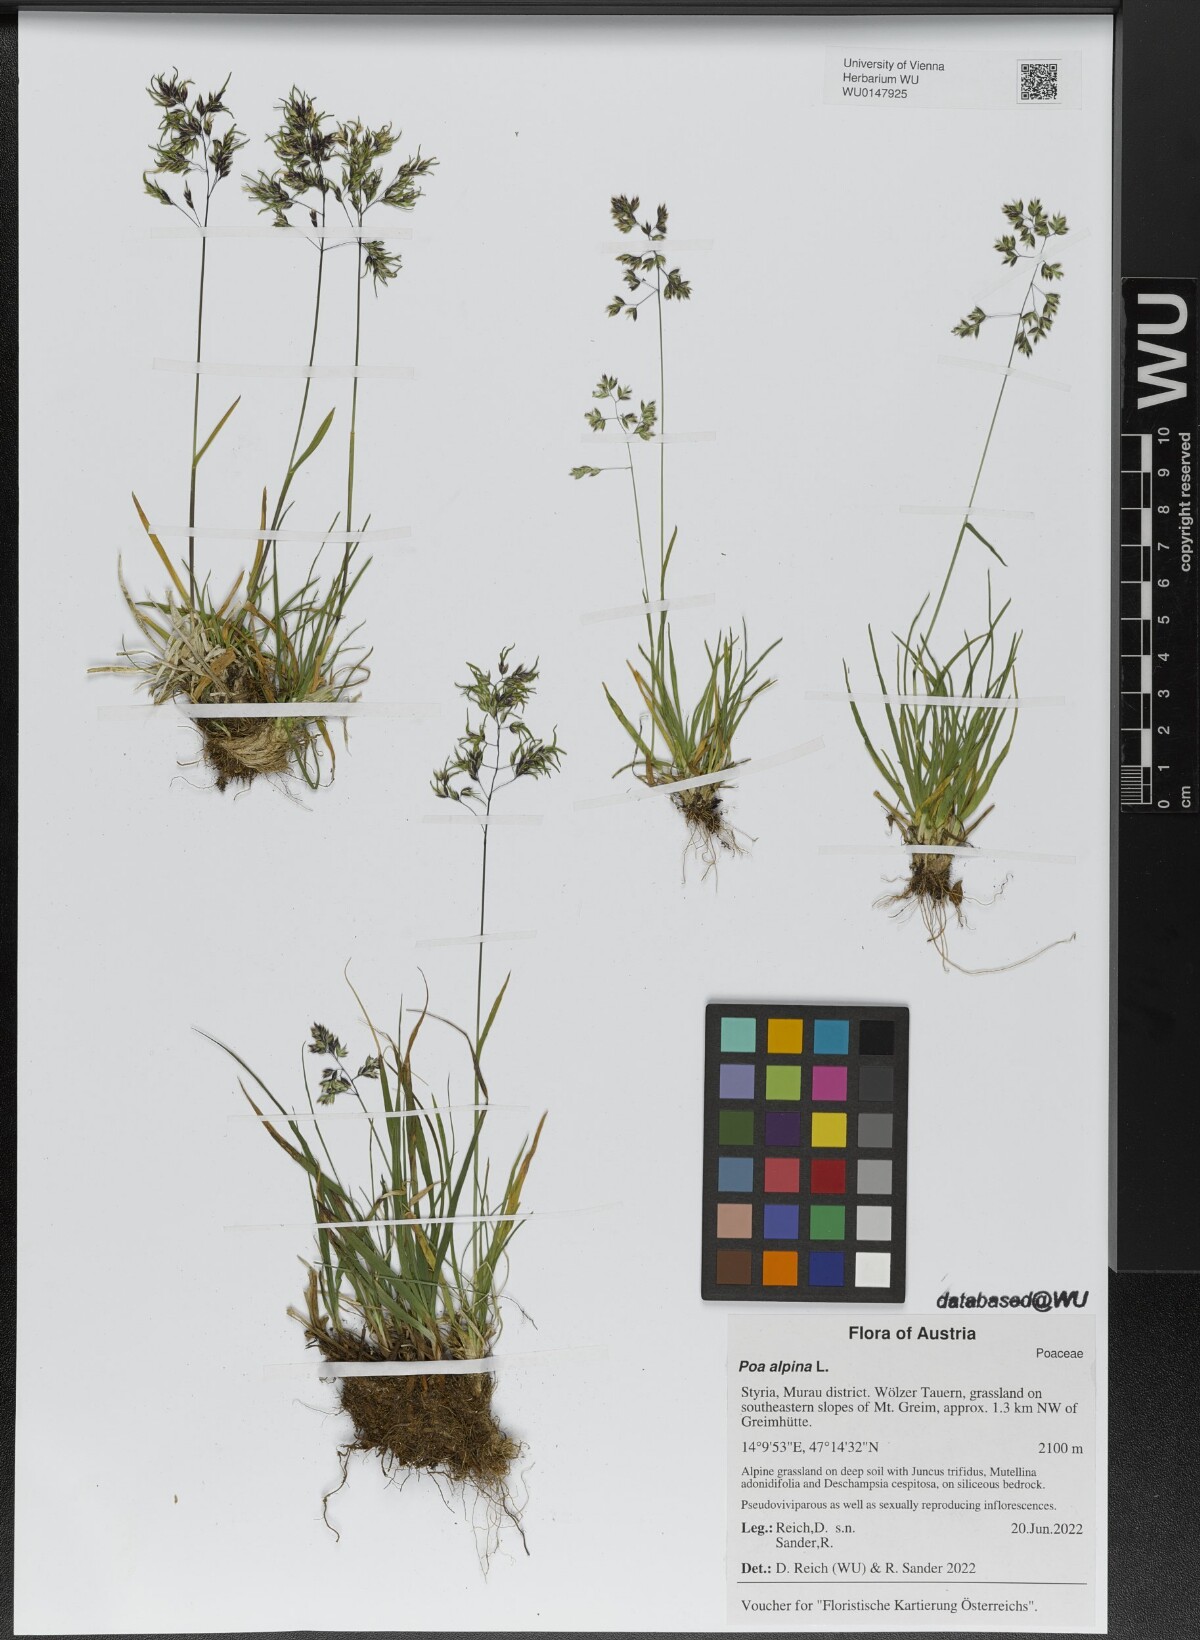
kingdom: Plantae
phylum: Tracheophyta
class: Liliopsida
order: Poales
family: Poaceae
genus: Poa
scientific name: Poa alpina
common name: Alpine bluegrass
